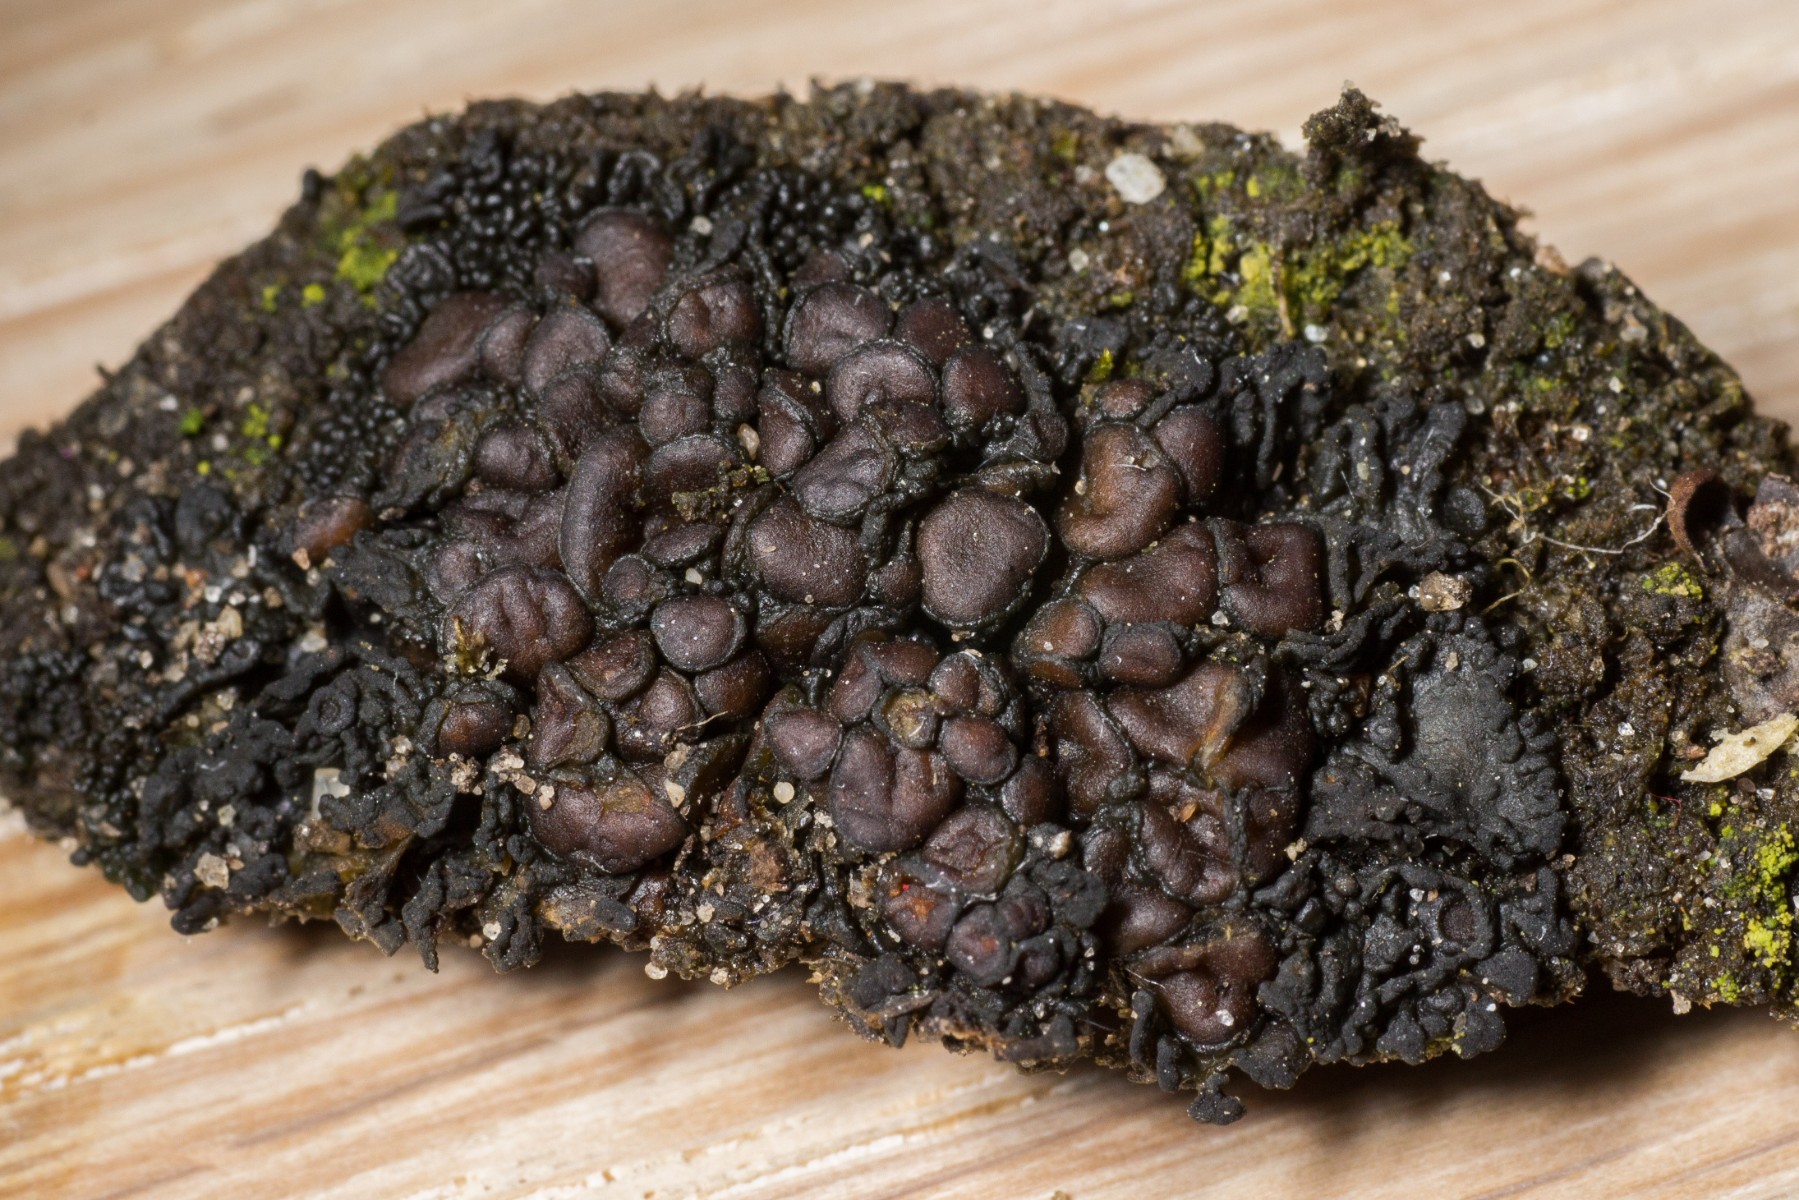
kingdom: Fungi
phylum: Ascomycota
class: Lecanoromycetes
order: Peltigerales
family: Collemataceae
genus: Enchylium
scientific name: Enchylium tenax
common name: tyk bævrelav
